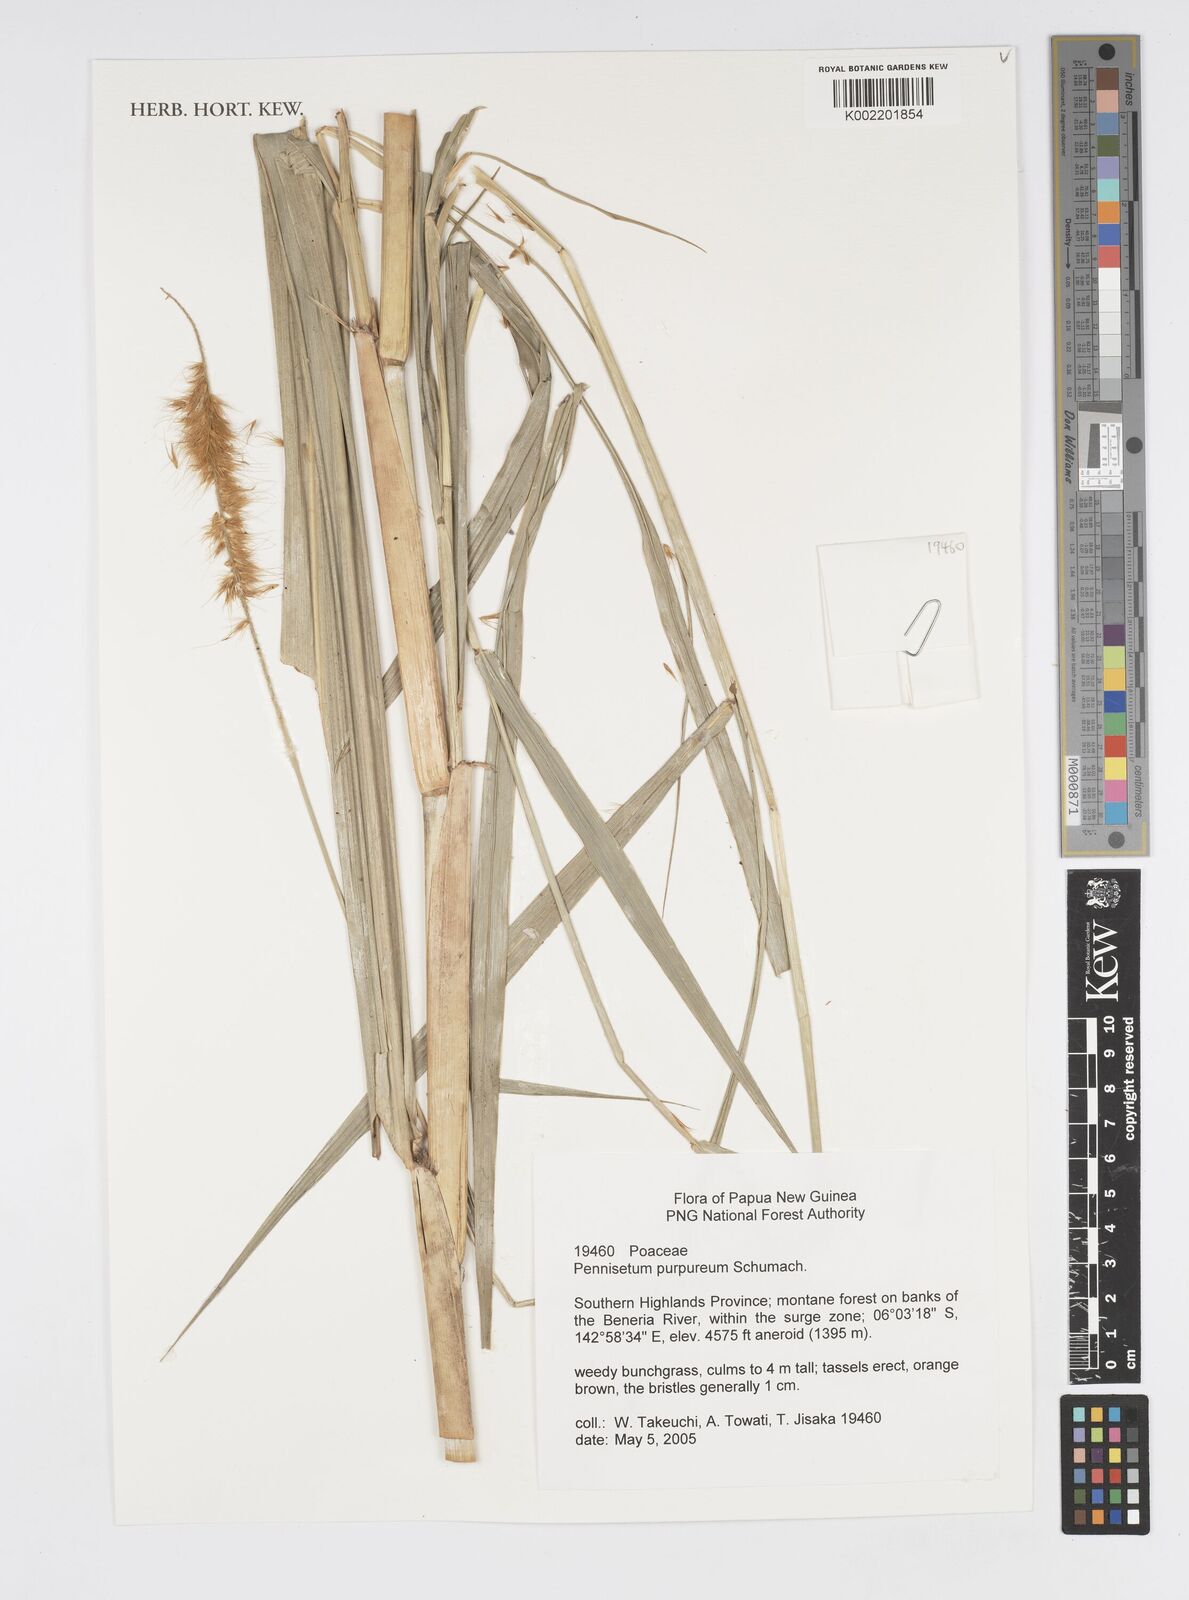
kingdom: Plantae
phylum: Tracheophyta
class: Liliopsida
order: Poales
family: Poaceae
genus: Cenchrus
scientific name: Cenchrus purpureus
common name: Elephant grass
